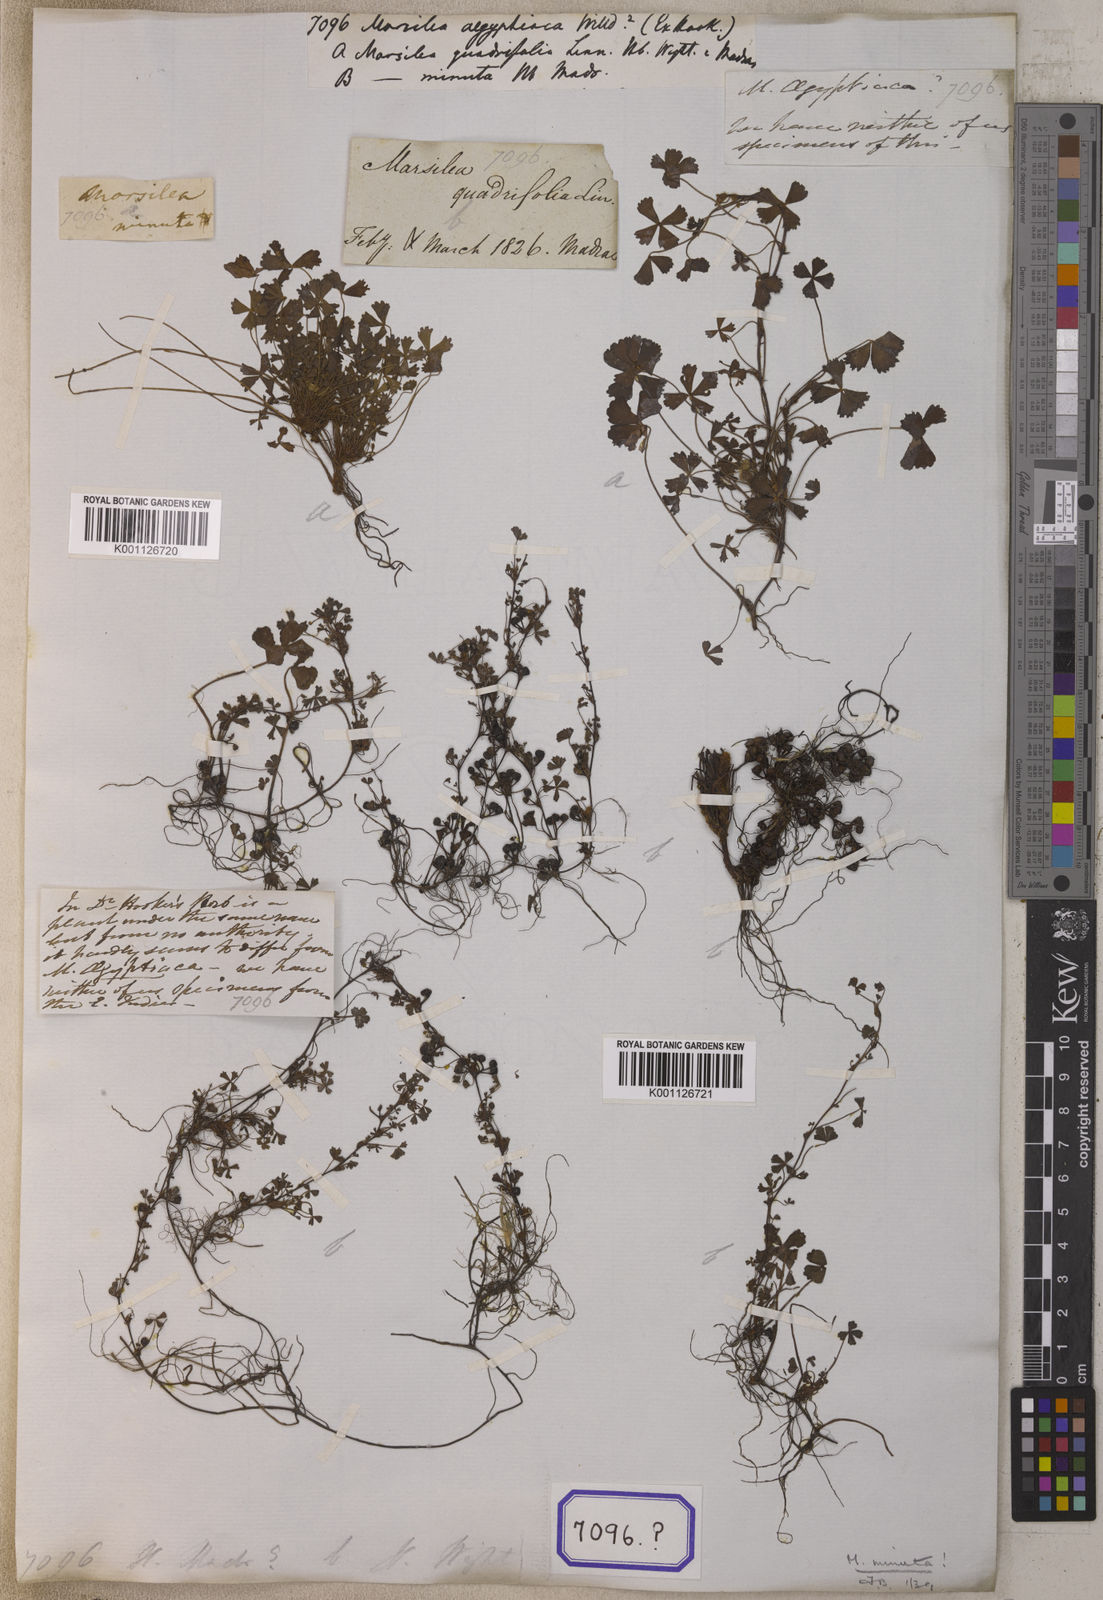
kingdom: Plantae
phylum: Tracheophyta
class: Polypodiopsida
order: Salviniales
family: Marsileaceae
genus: Marsilea
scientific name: Marsilea minuta
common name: Dwarf waterclover
